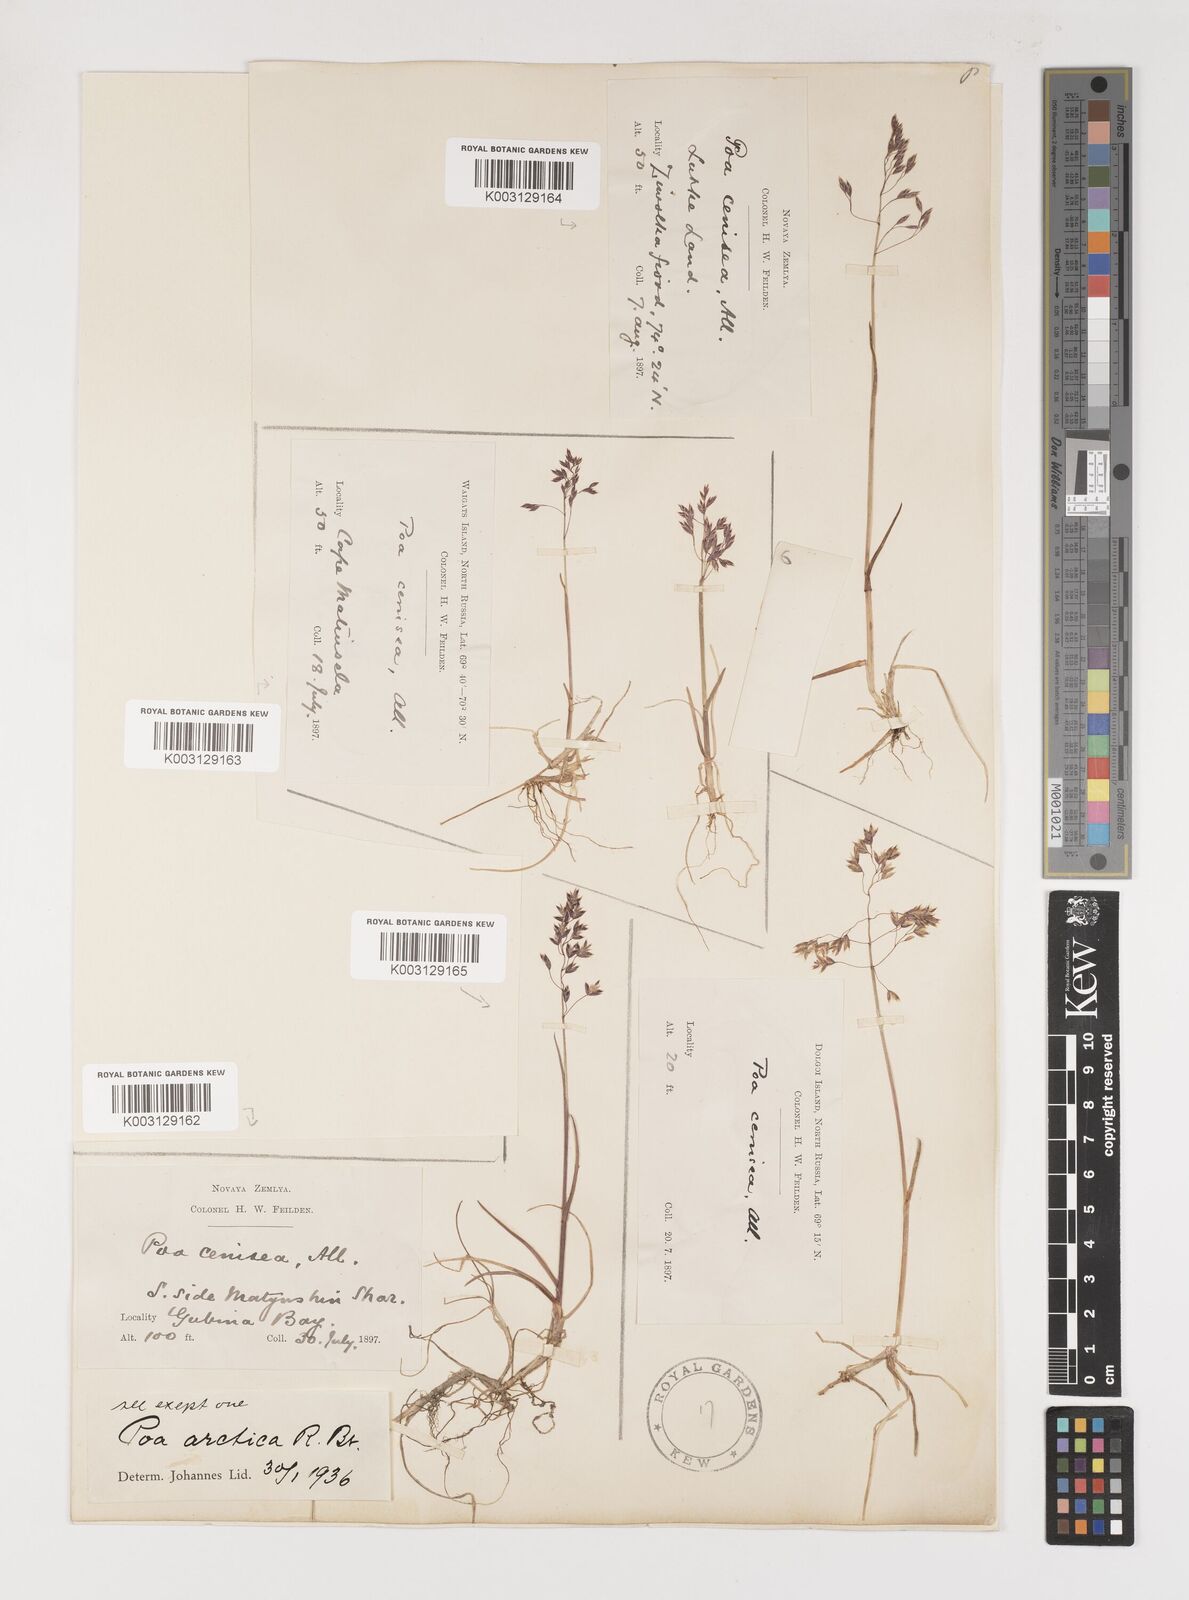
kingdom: Plantae
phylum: Tracheophyta
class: Liliopsida
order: Poales
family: Poaceae
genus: Poa
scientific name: Poa arctica
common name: Arctic bluegrass
